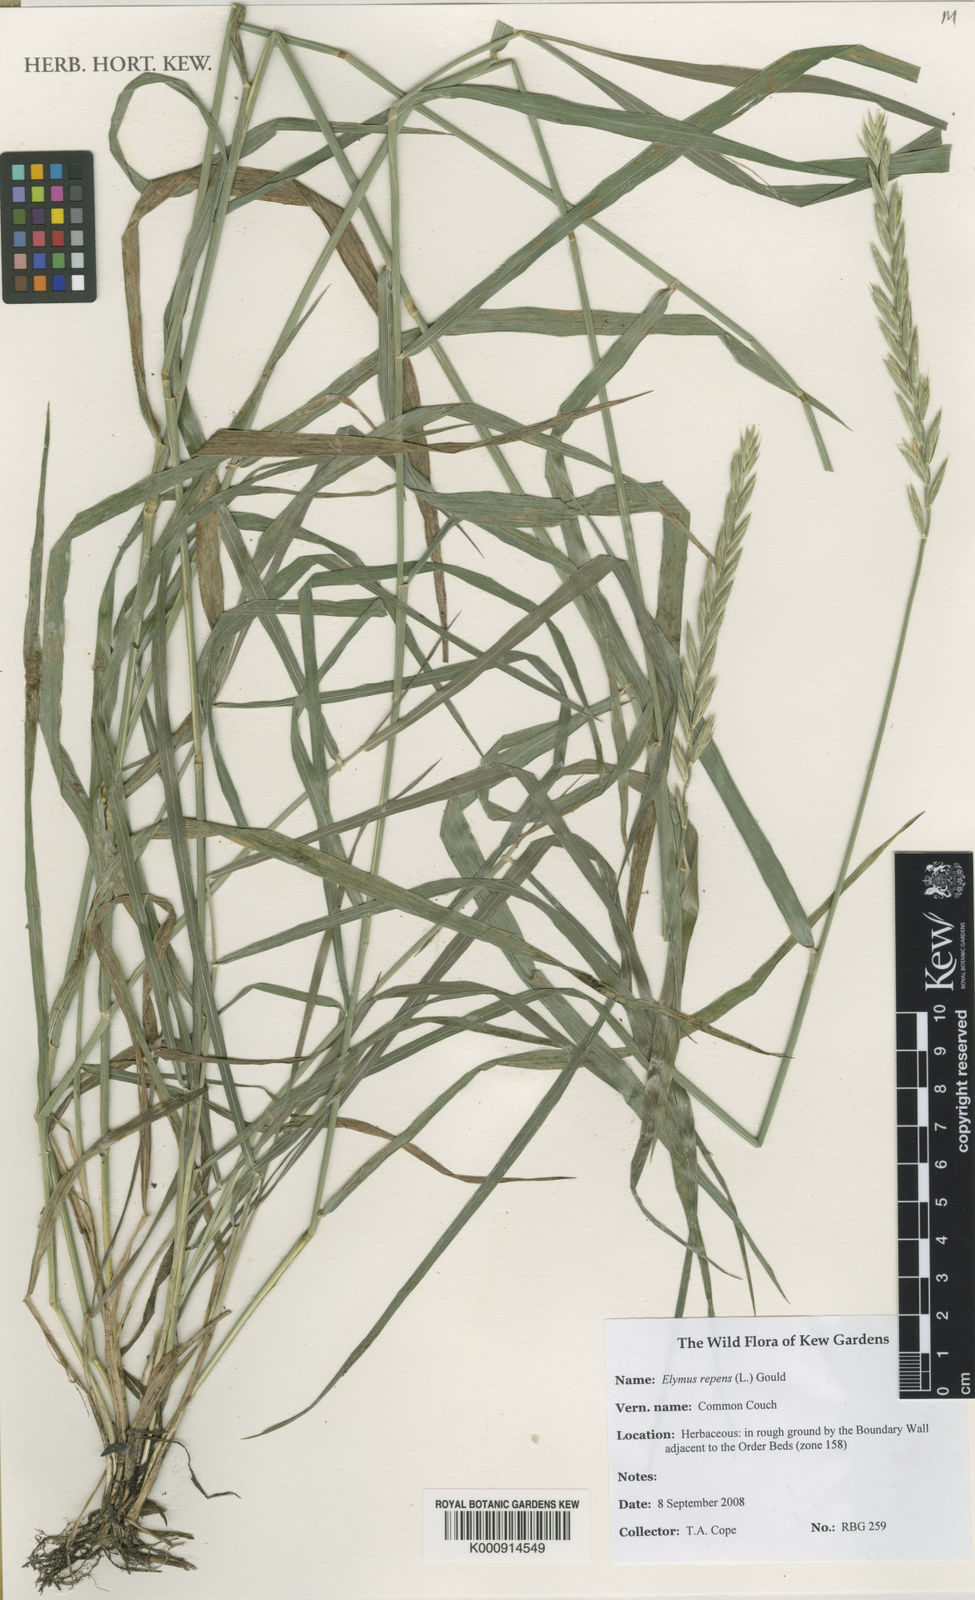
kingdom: Plantae
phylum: Tracheophyta
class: Liliopsida
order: Poales
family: Poaceae
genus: Elymus
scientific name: Elymus repens
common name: Quackgrass
